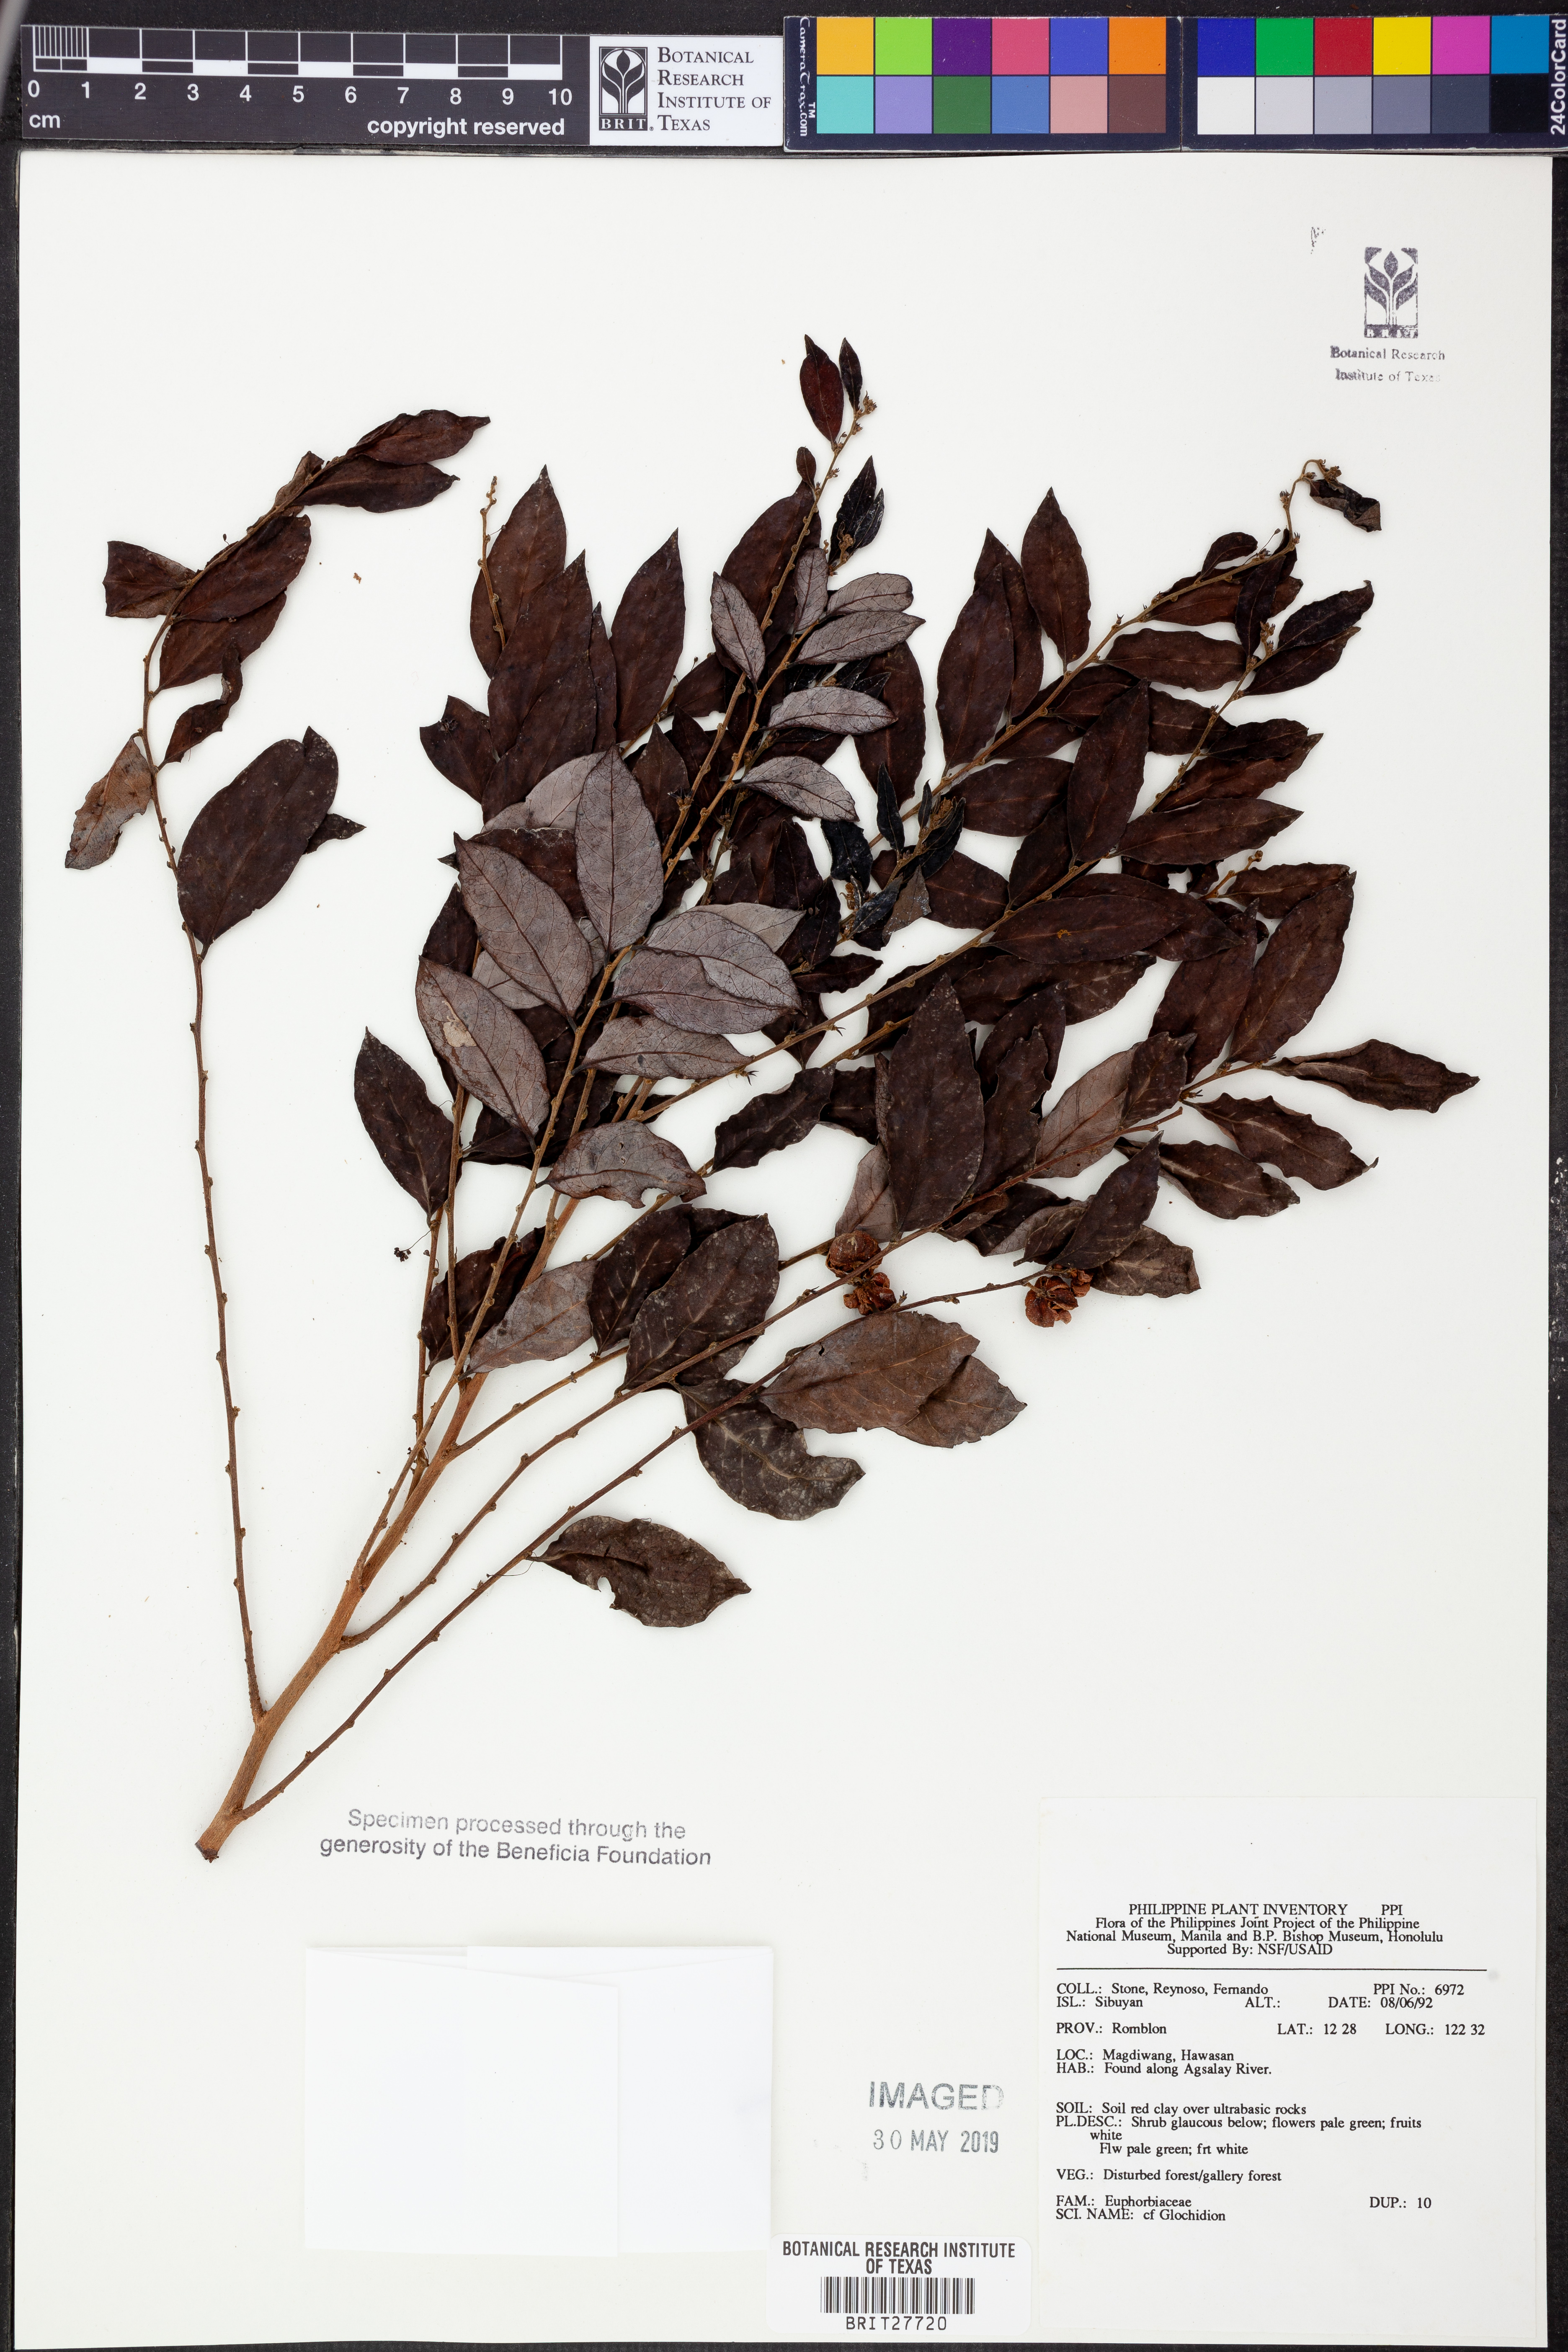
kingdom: Plantae
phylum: Tracheophyta
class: Magnoliopsida
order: Malpighiales
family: Phyllanthaceae
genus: Glochidion
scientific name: Glochidion
